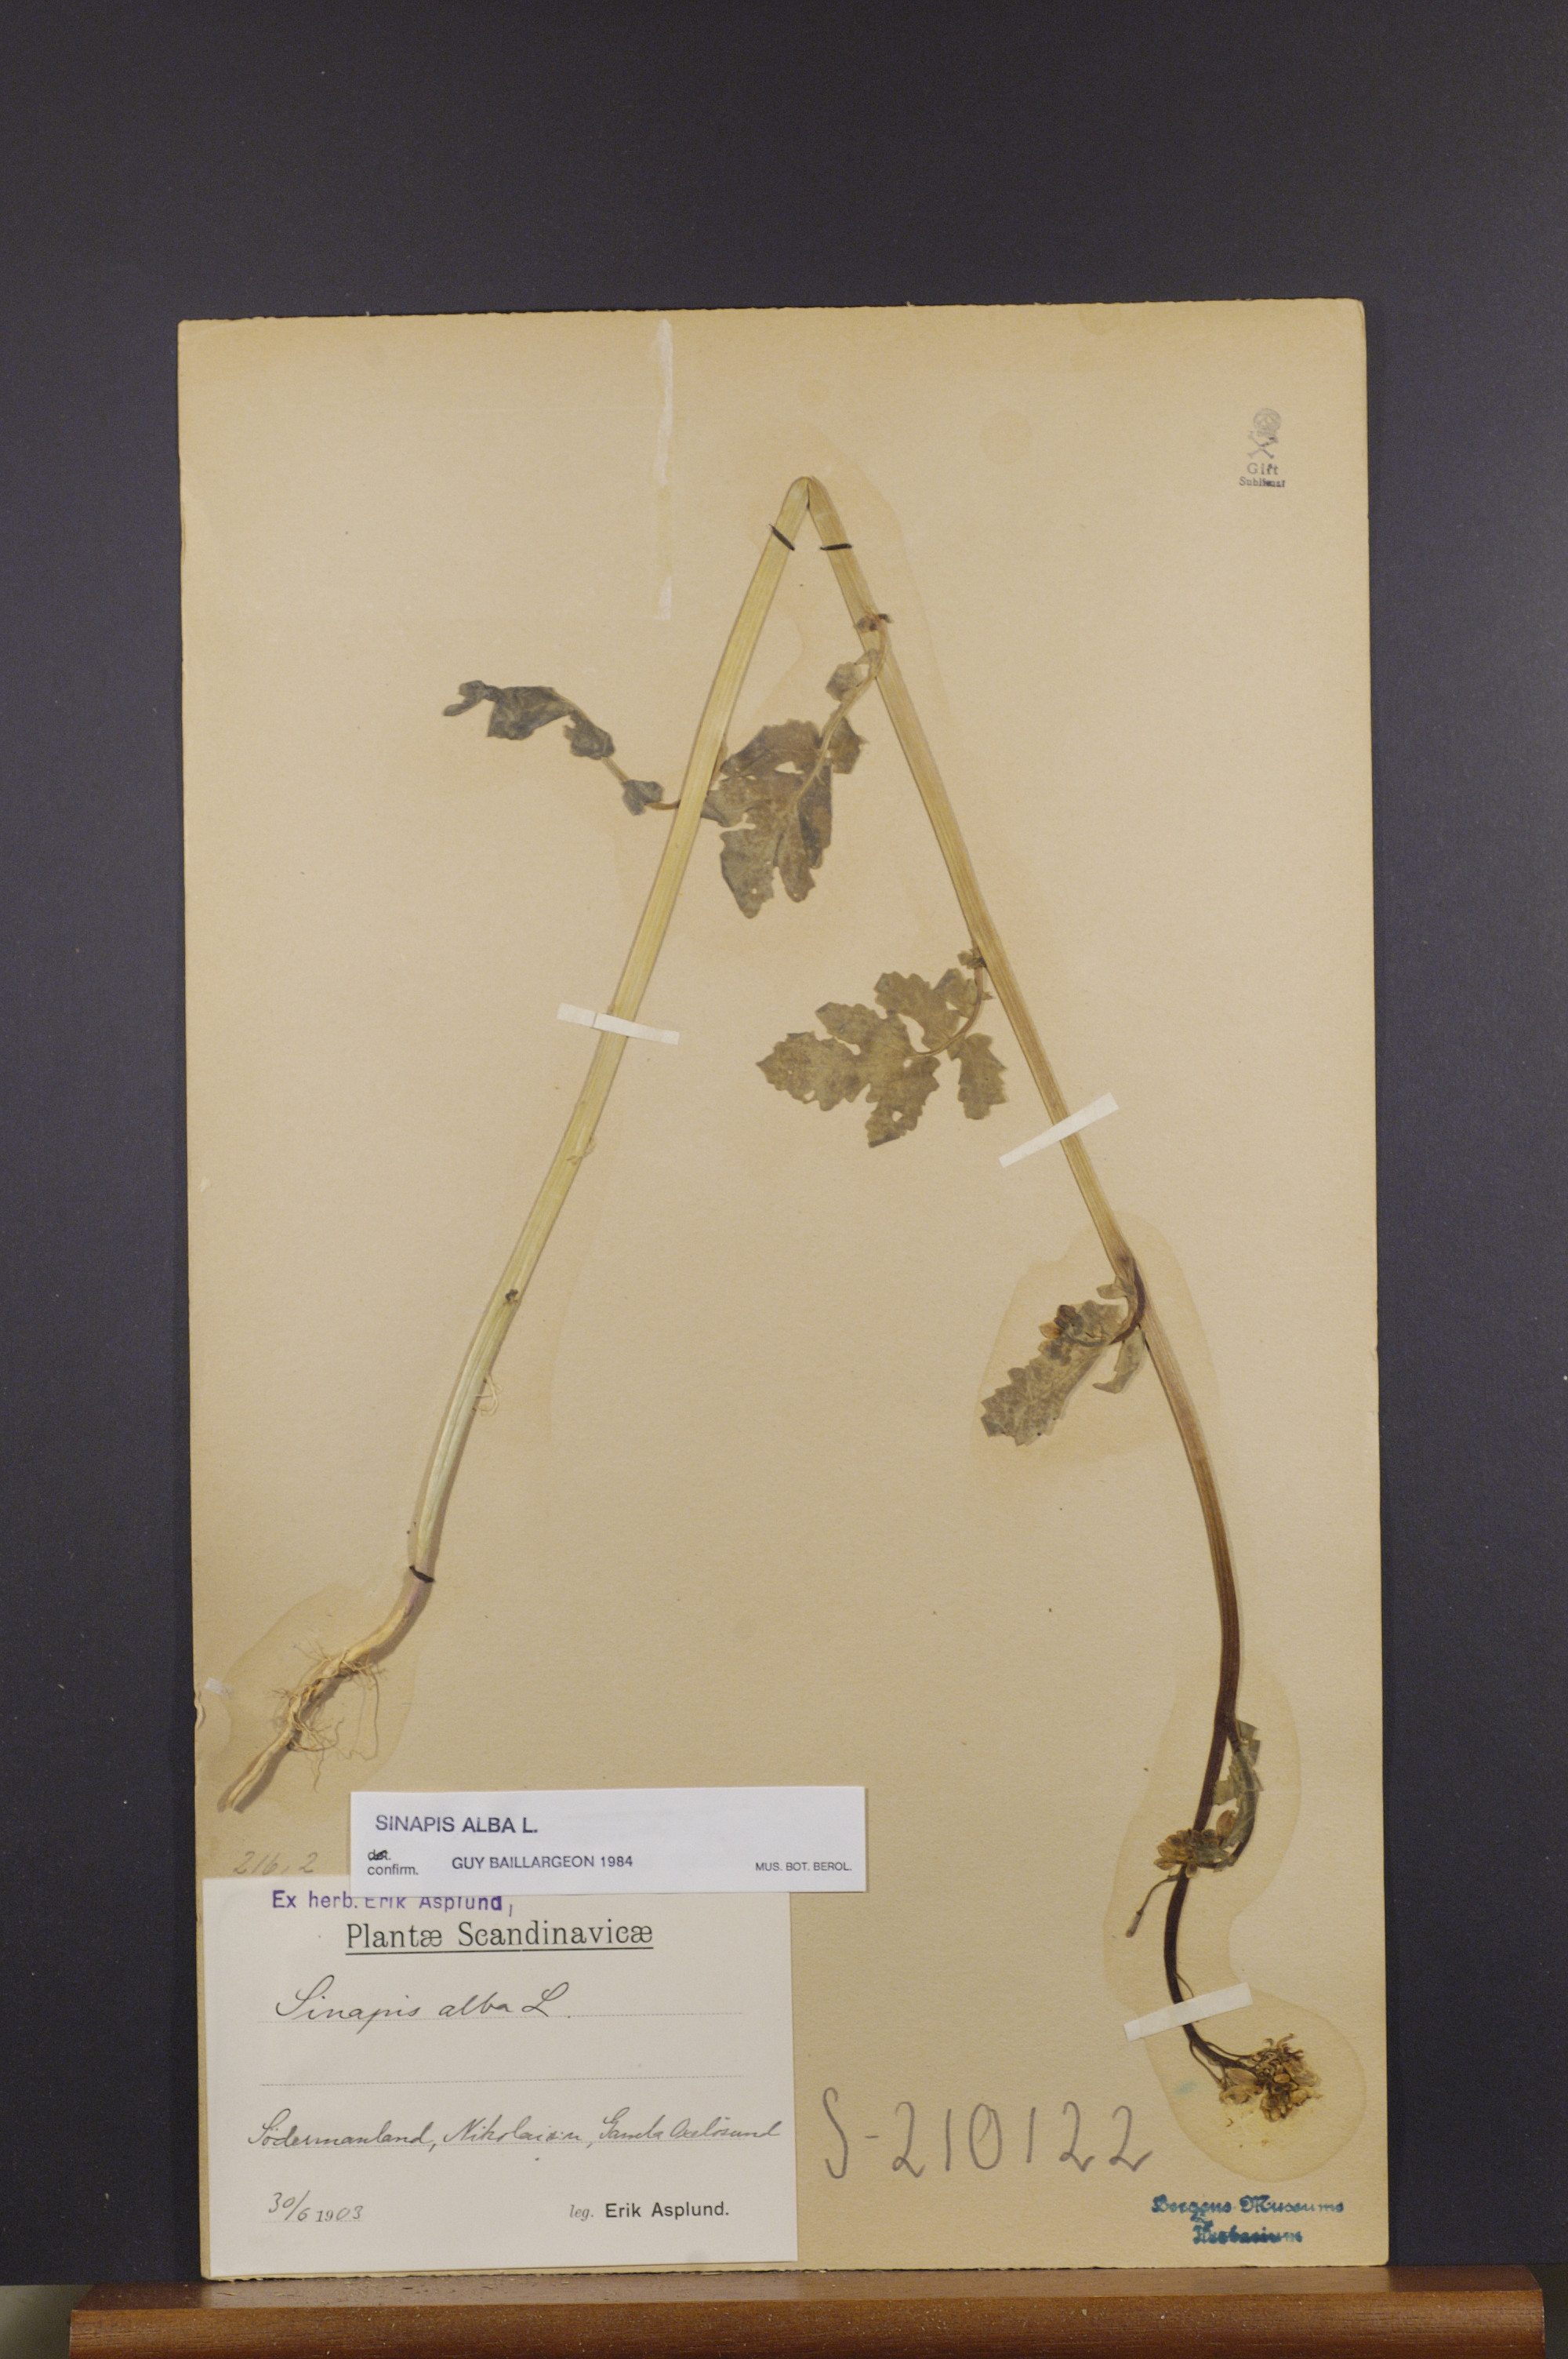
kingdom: Plantae
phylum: Tracheophyta
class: Magnoliopsida
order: Brassicales
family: Brassicaceae
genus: Sinapis
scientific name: Sinapis alba
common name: White mustard
